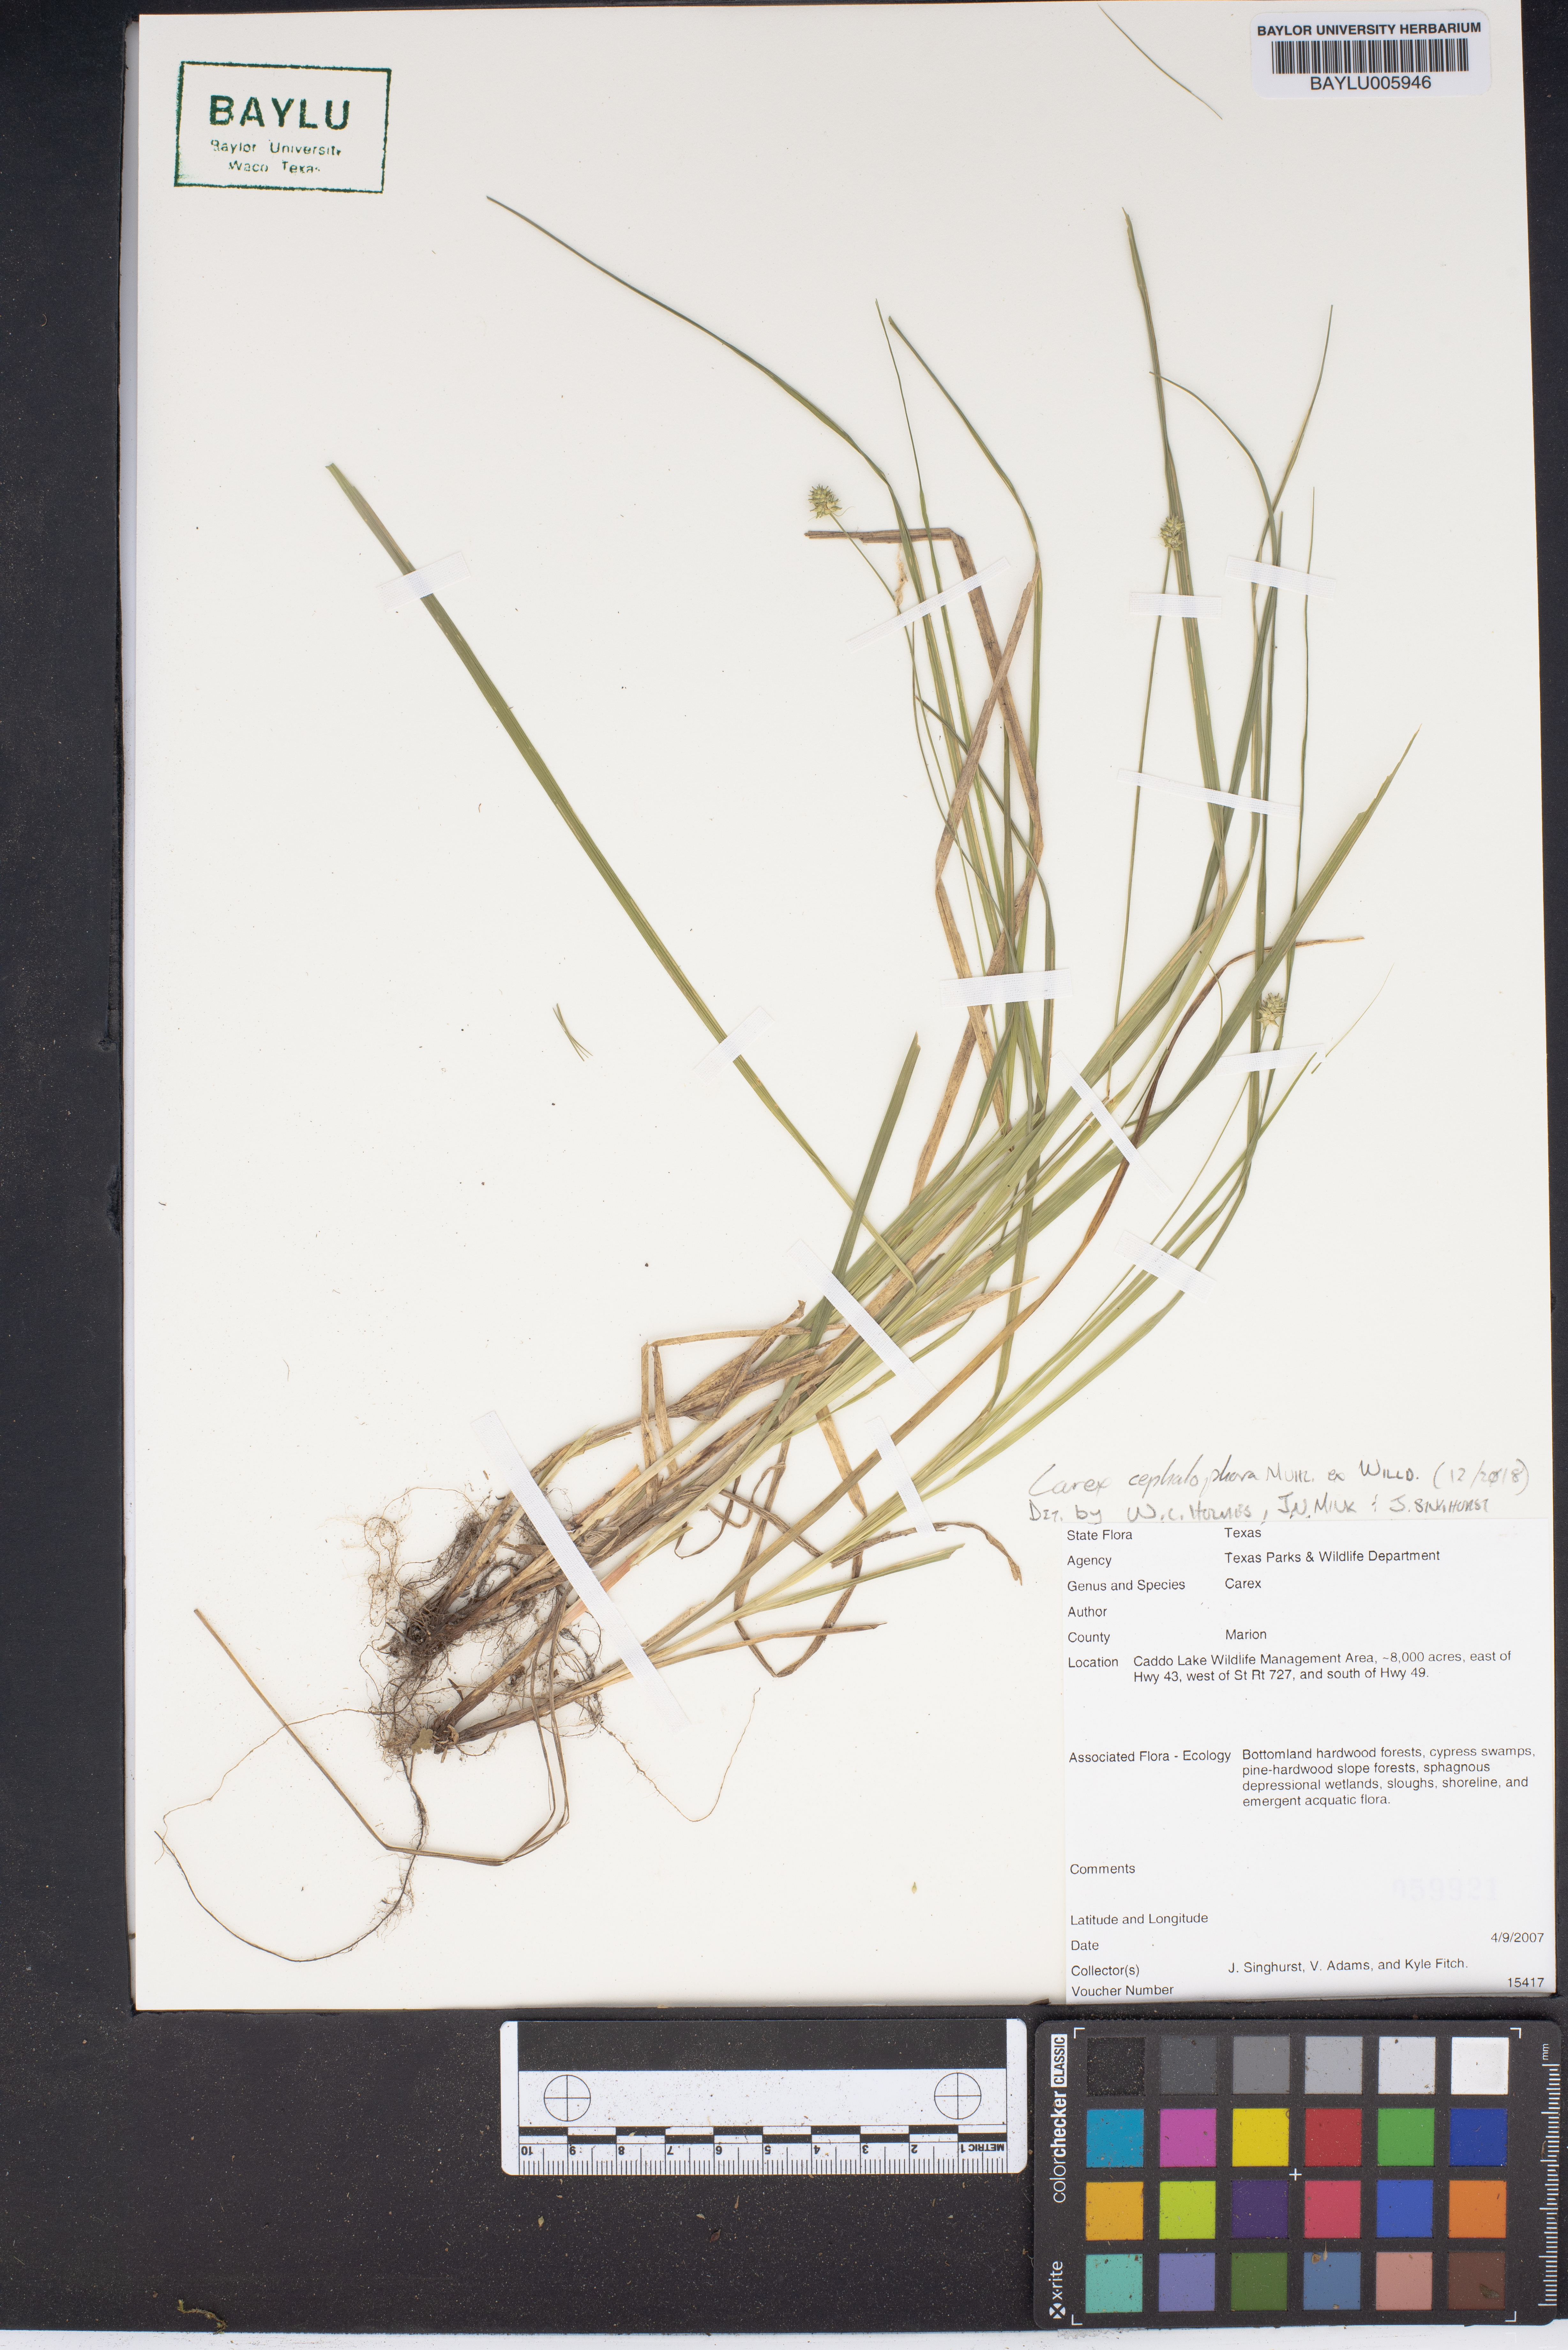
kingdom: Plantae
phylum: Tracheophyta
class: Liliopsida
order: Poales
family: Cyperaceae
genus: Carex
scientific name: Carex cephalophora
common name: Oval-headed sedge
